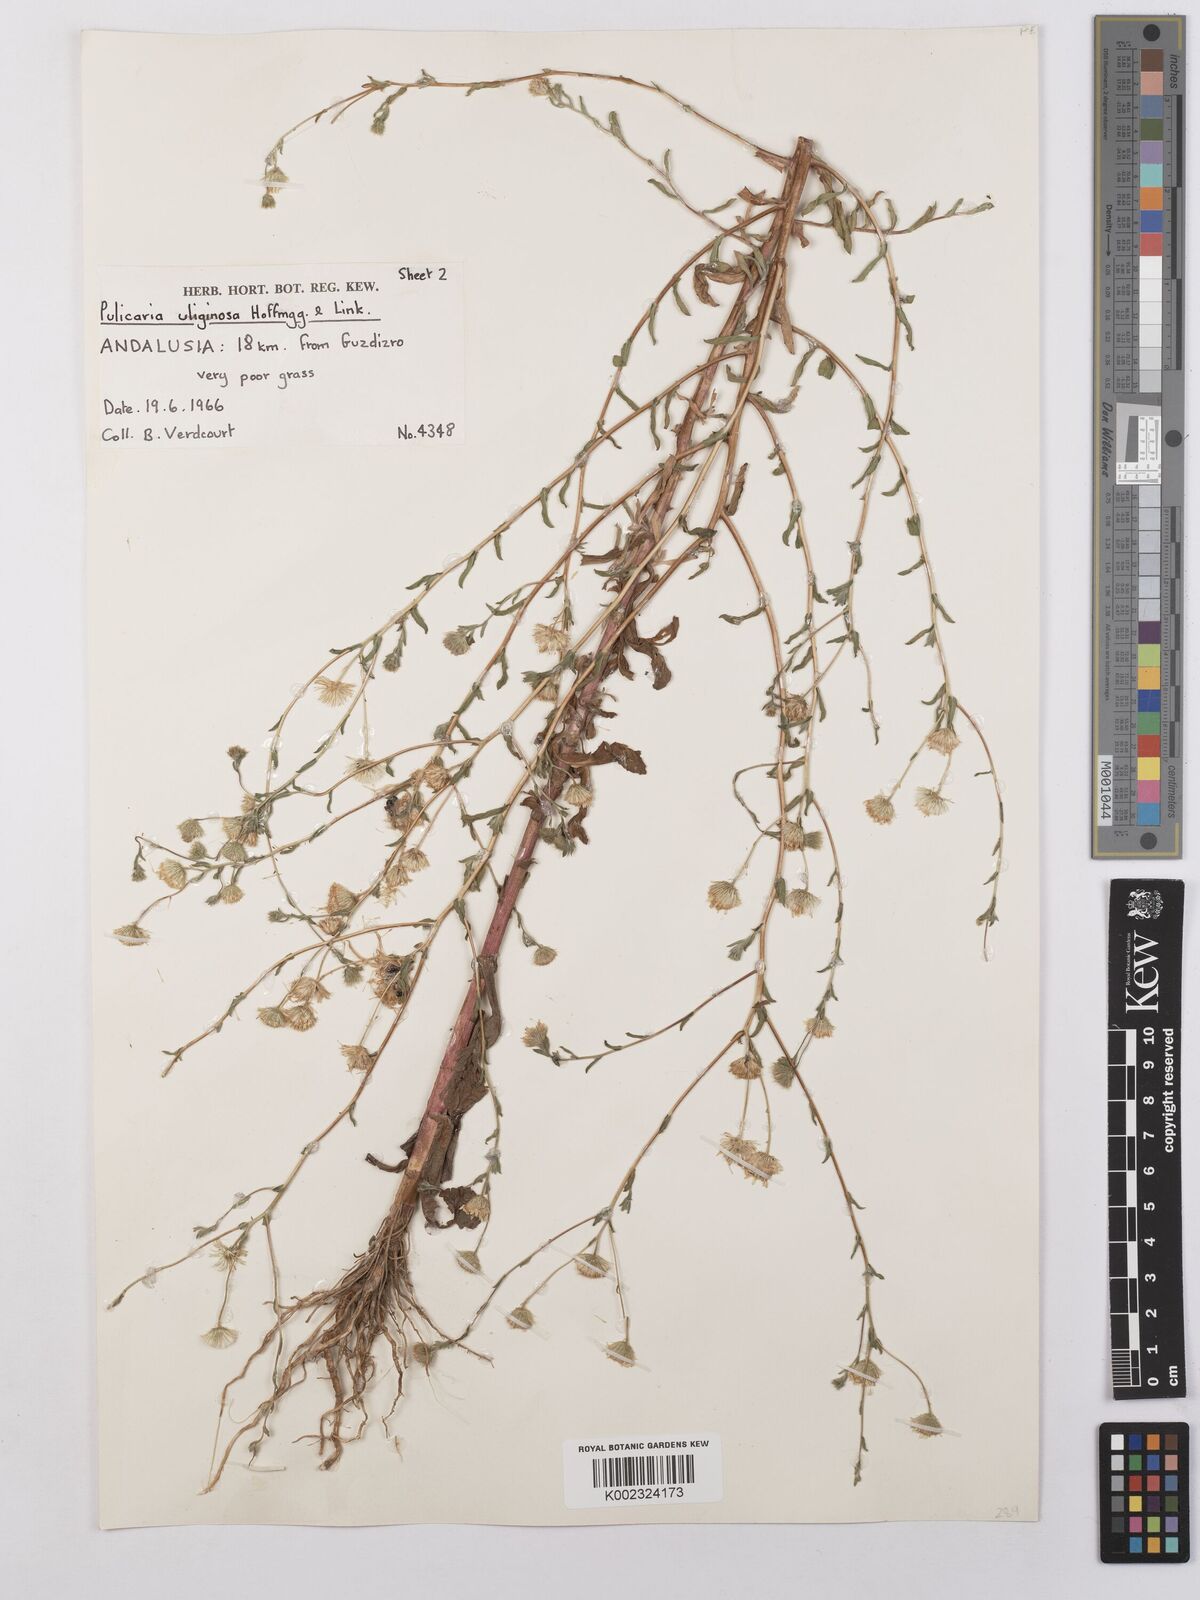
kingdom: Plantae
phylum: Tracheophyta
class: Magnoliopsida
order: Asterales
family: Asteraceae
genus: Pulicaria
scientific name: Pulicaria arabica
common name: Ladies' false fleabane
